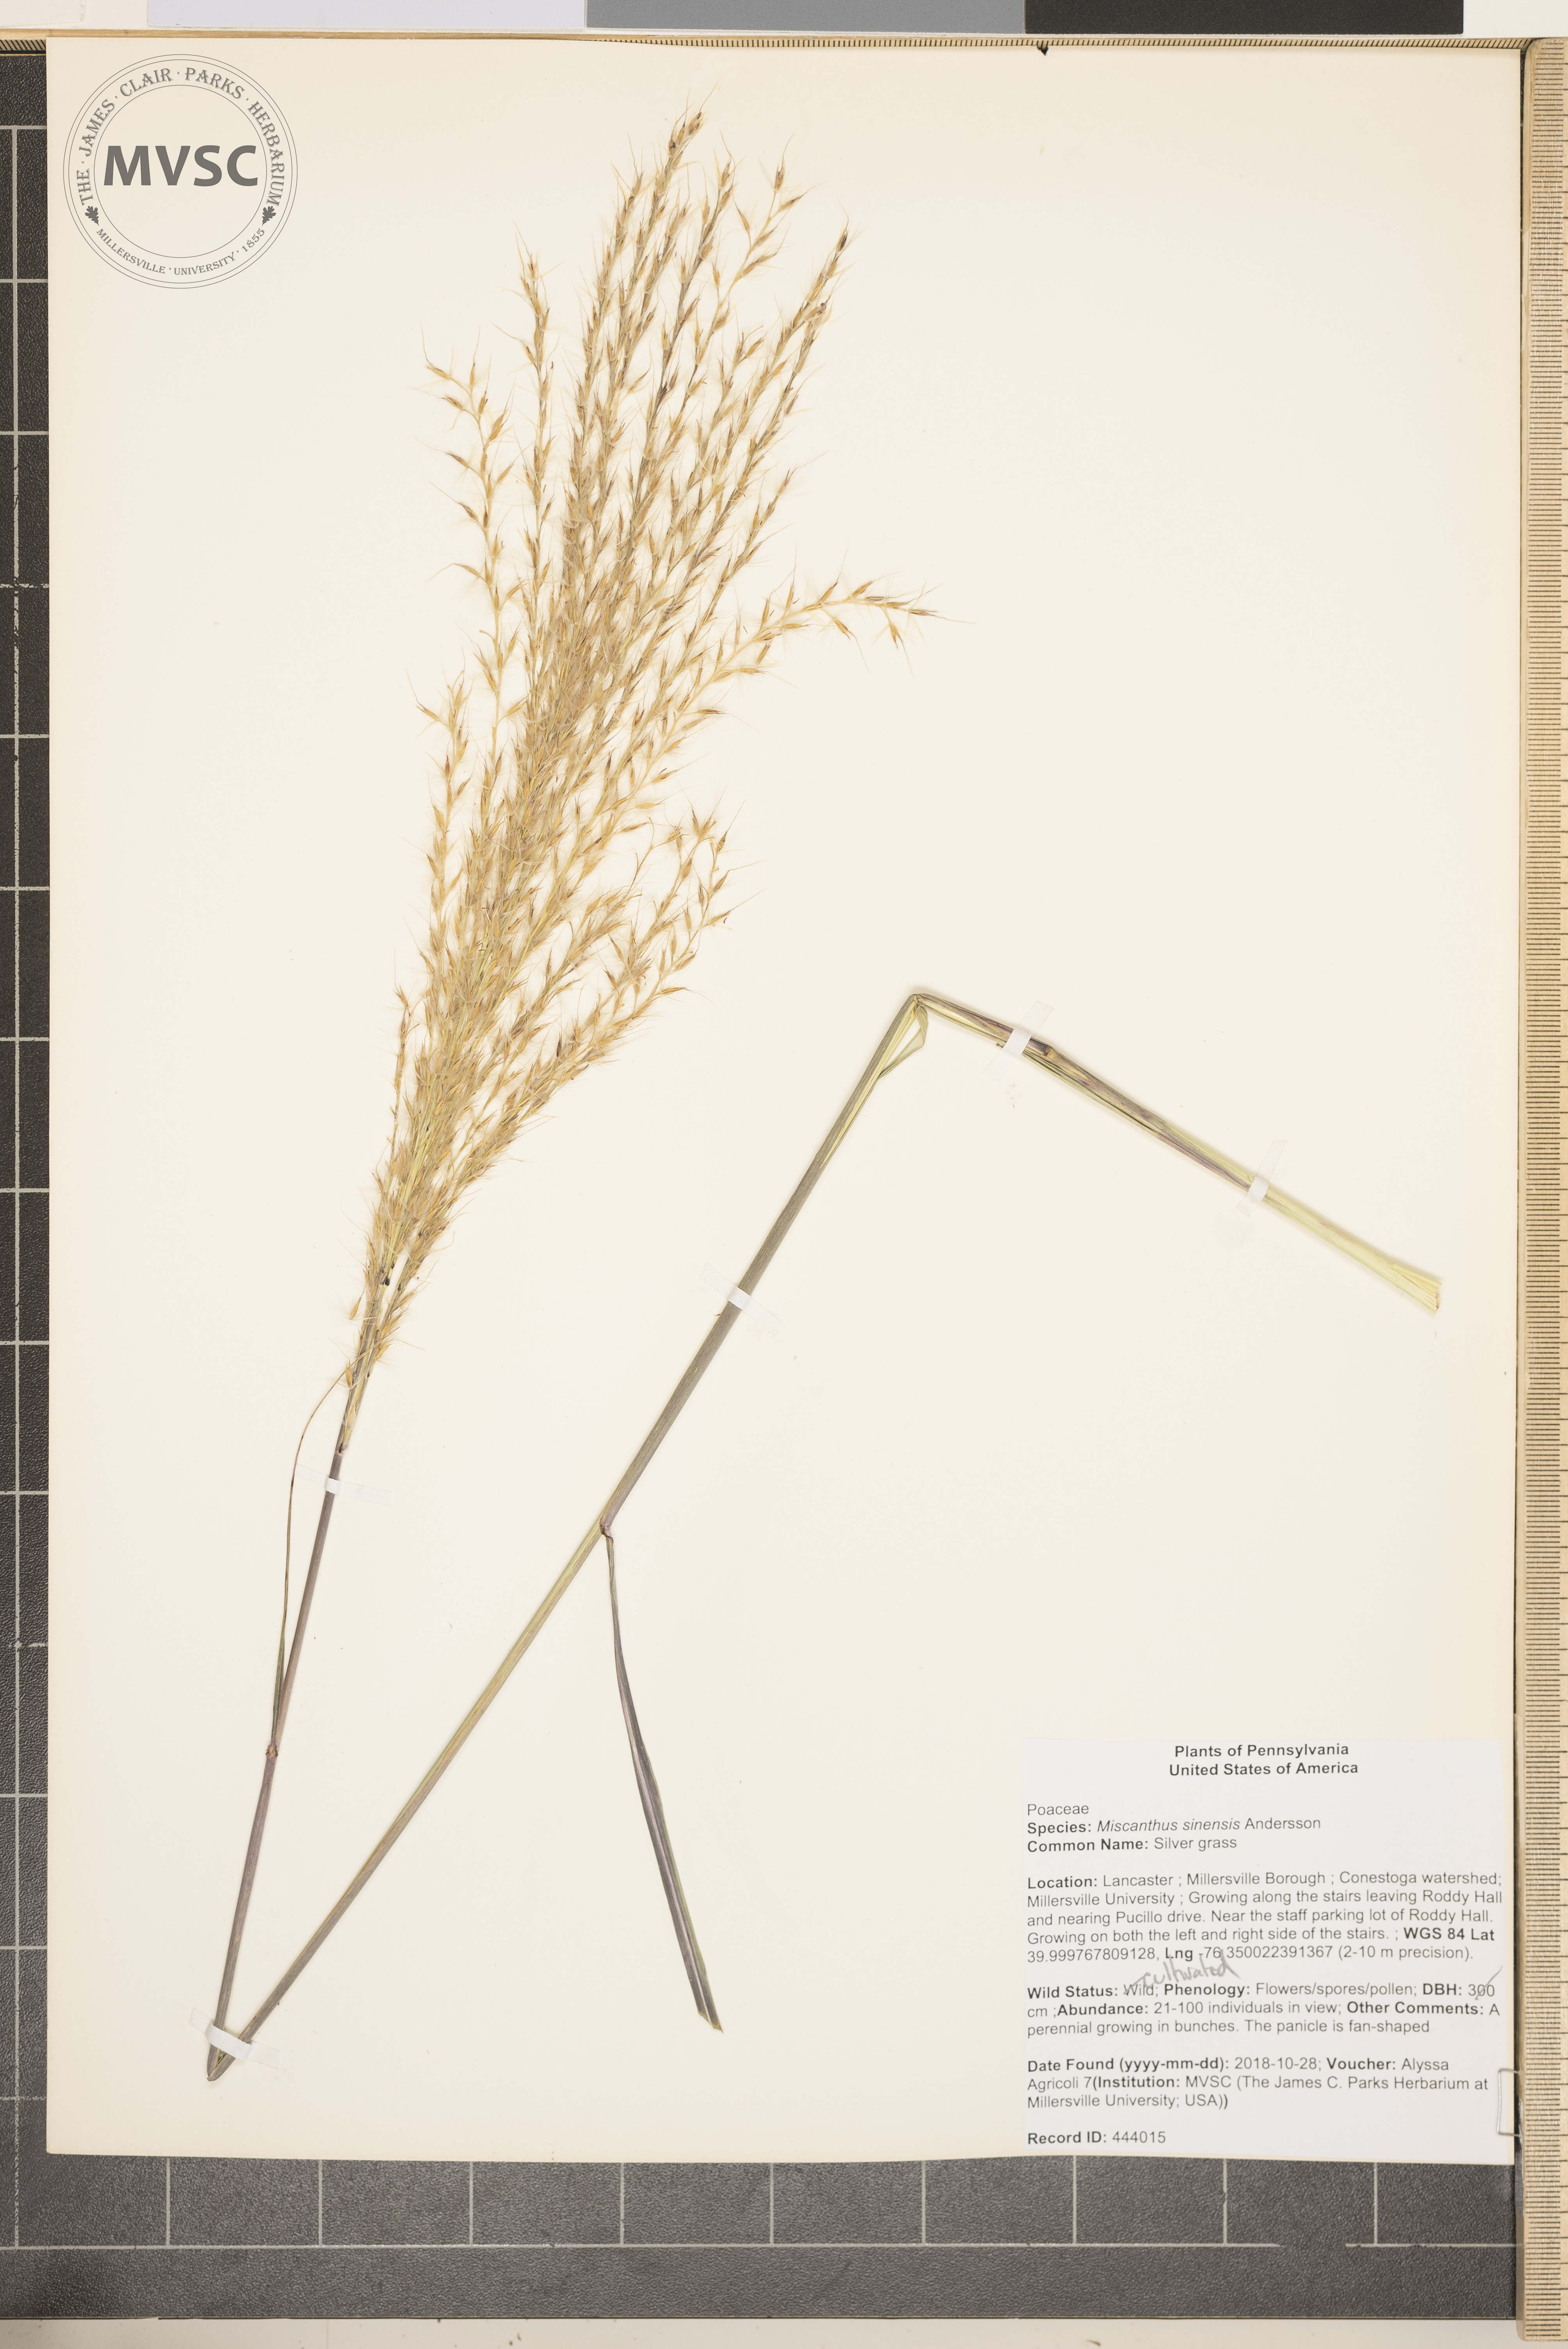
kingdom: Plantae
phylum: Tracheophyta
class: Liliopsida
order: Poales
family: Poaceae
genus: Miscanthus
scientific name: Miscanthus sinensis
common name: Silver grass
